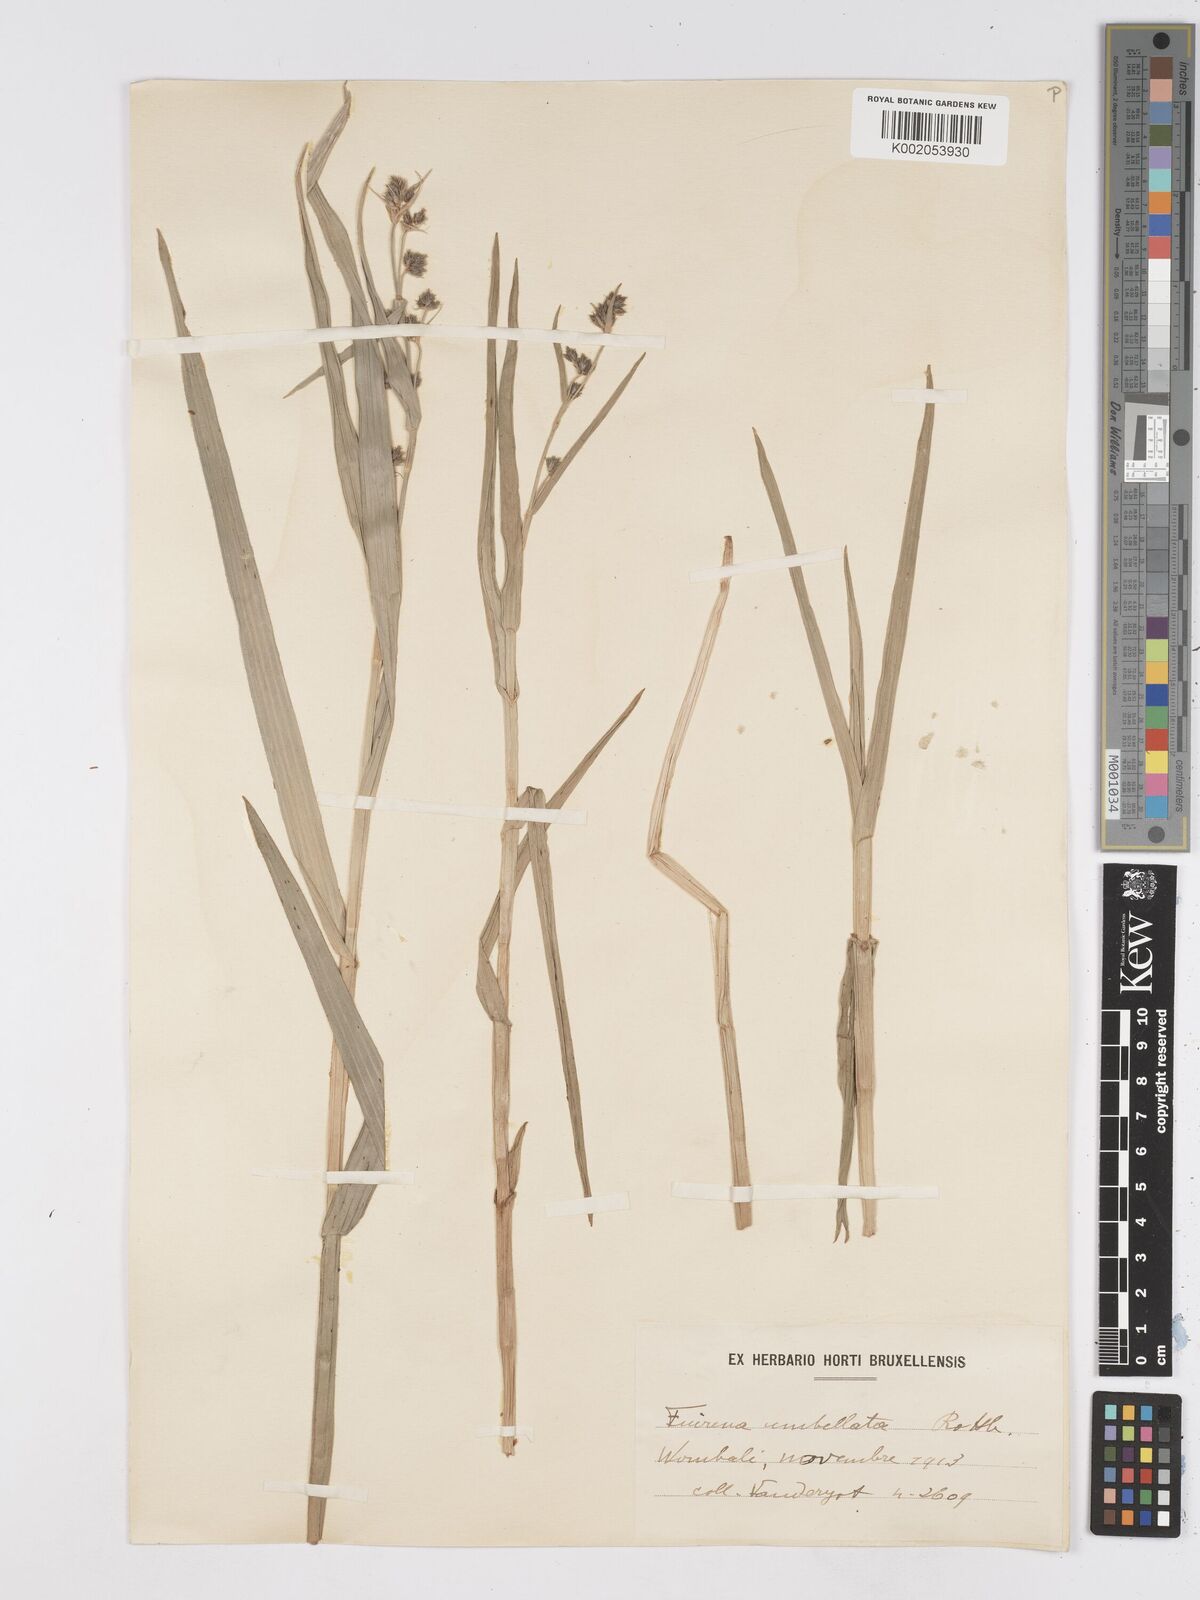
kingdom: Plantae
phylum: Tracheophyta
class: Liliopsida
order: Poales
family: Cyperaceae
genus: Fuirena
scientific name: Fuirena umbellata
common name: Yefen
